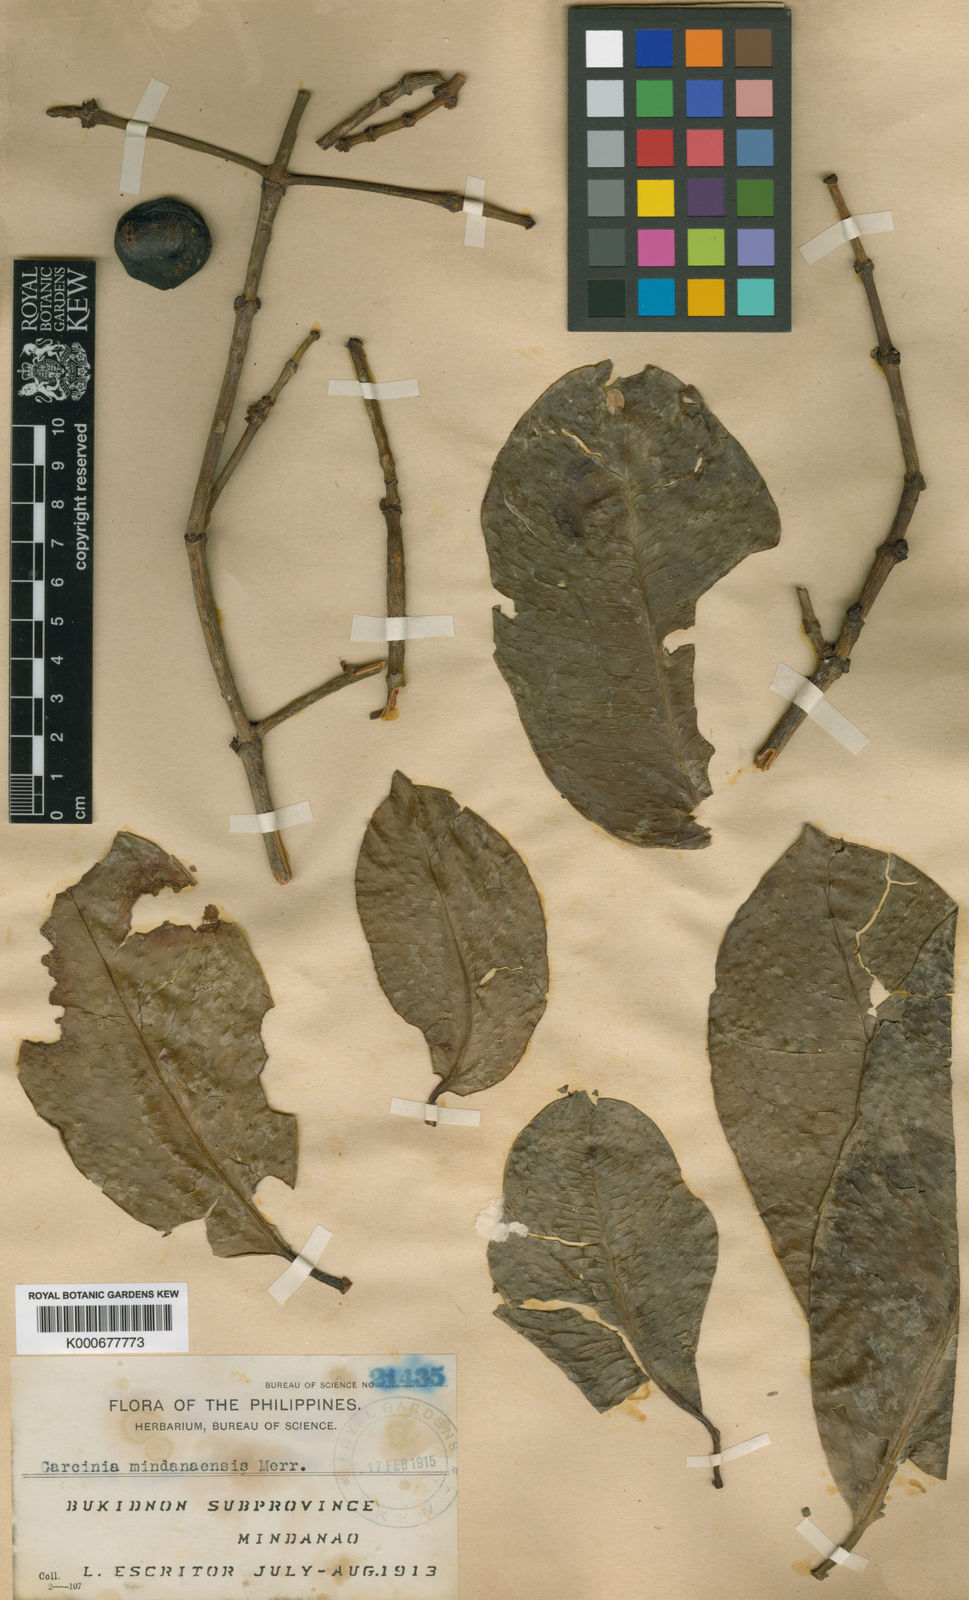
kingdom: Plantae
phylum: Tracheophyta
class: Magnoliopsida
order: Malpighiales
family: Clusiaceae
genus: Garcinia
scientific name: Garcinia mindanaensis
